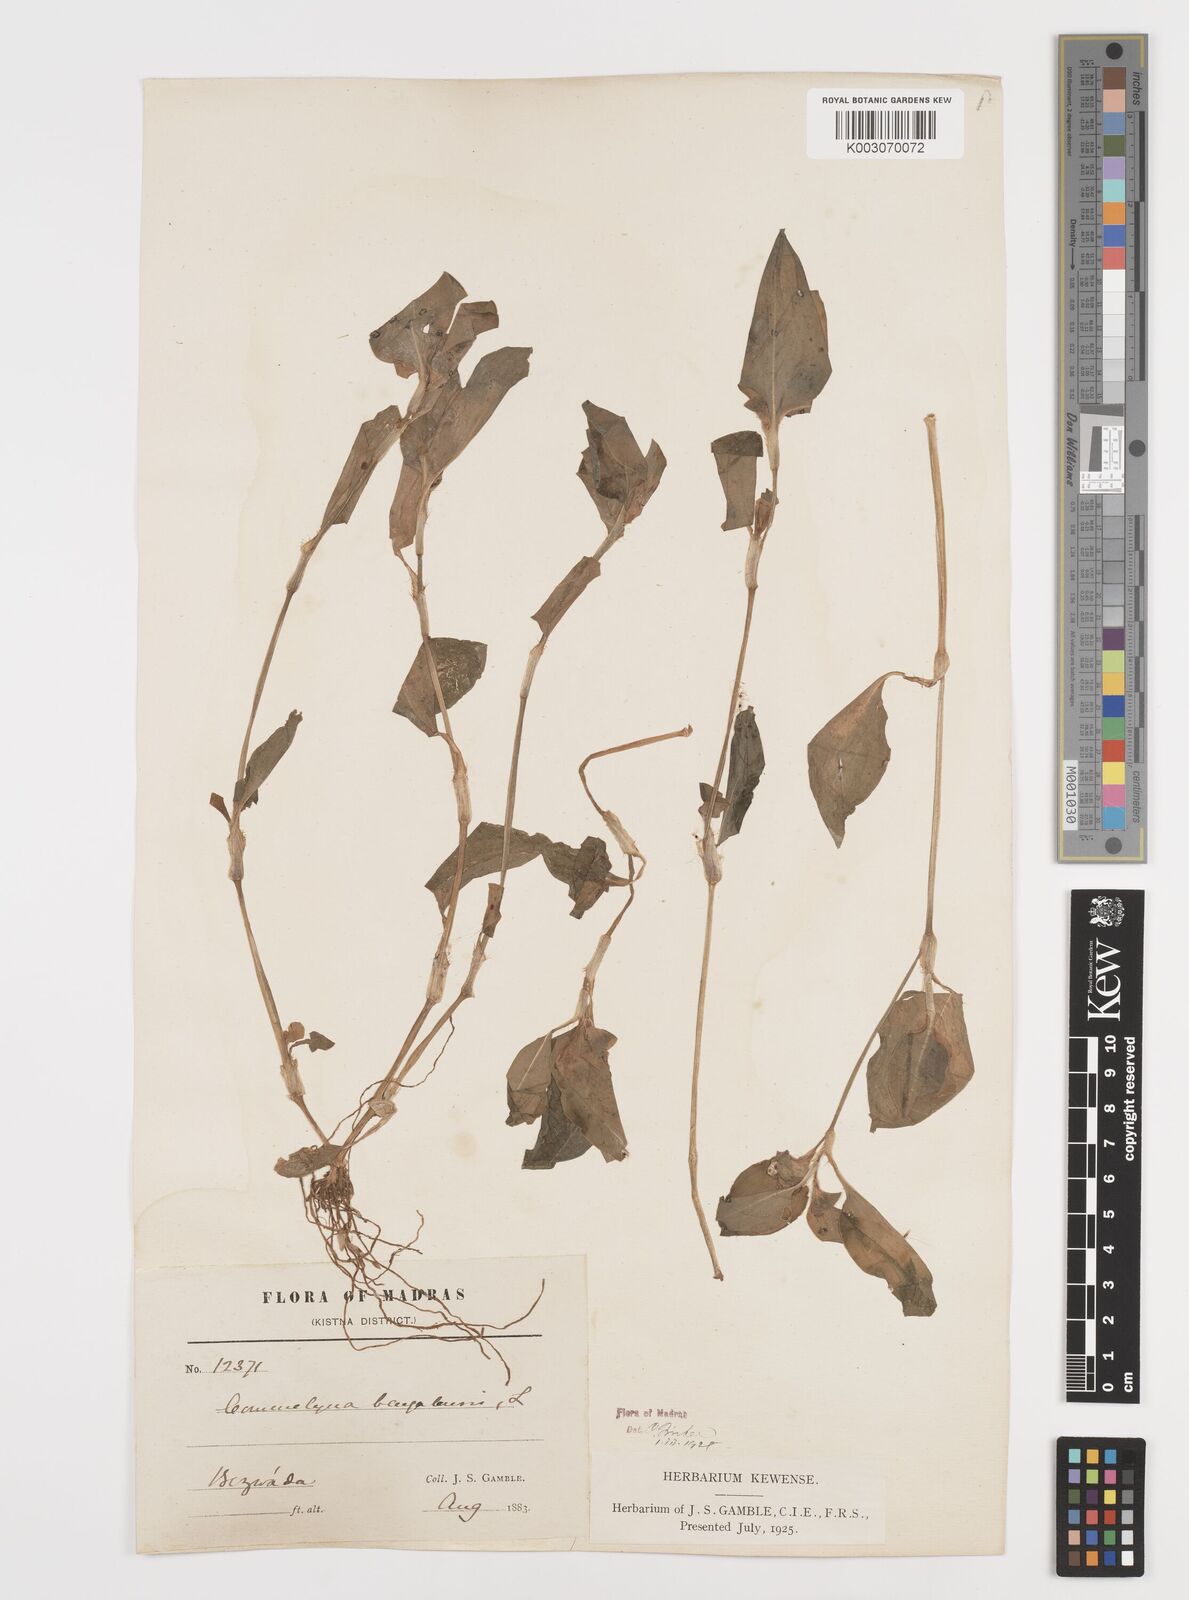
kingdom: Plantae
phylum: Tracheophyta
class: Liliopsida
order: Commelinales
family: Commelinaceae
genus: Commelina
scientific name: Commelina benghalensis
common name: Jio
